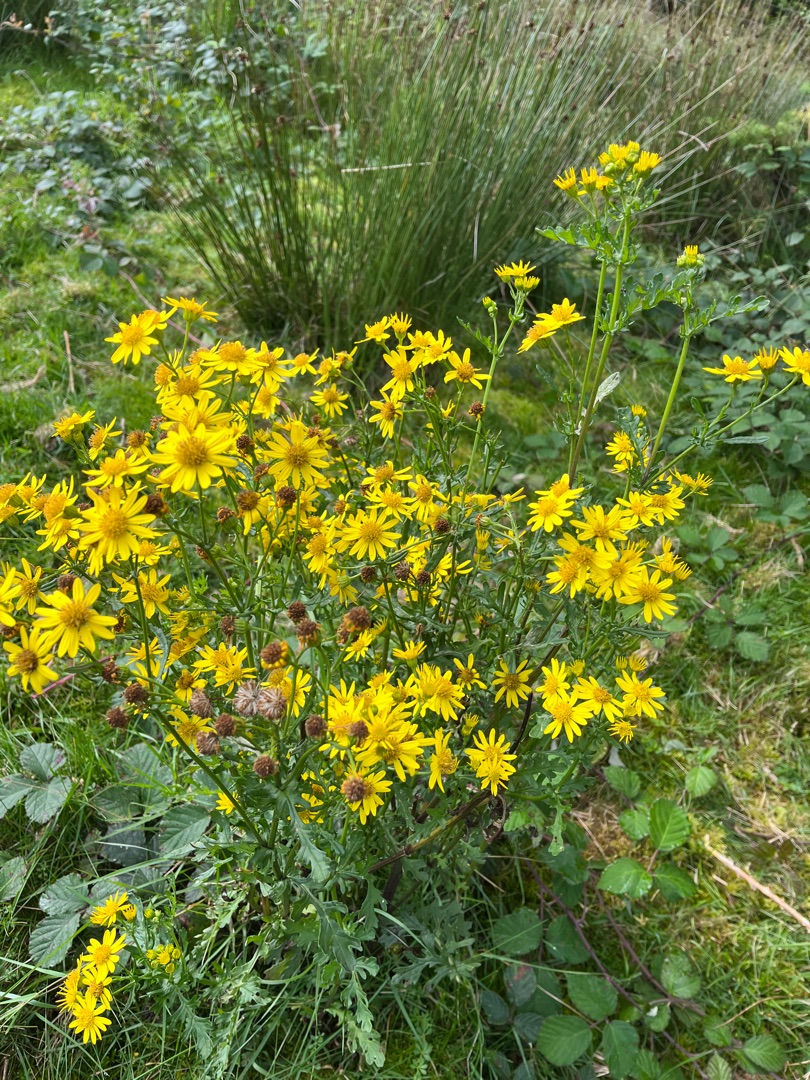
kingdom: Plantae
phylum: Tracheophyta
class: Magnoliopsida
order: Asterales
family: Asteraceae
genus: Jacobaea
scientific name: Jacobaea vulgaris
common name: Eng-brandbæger
